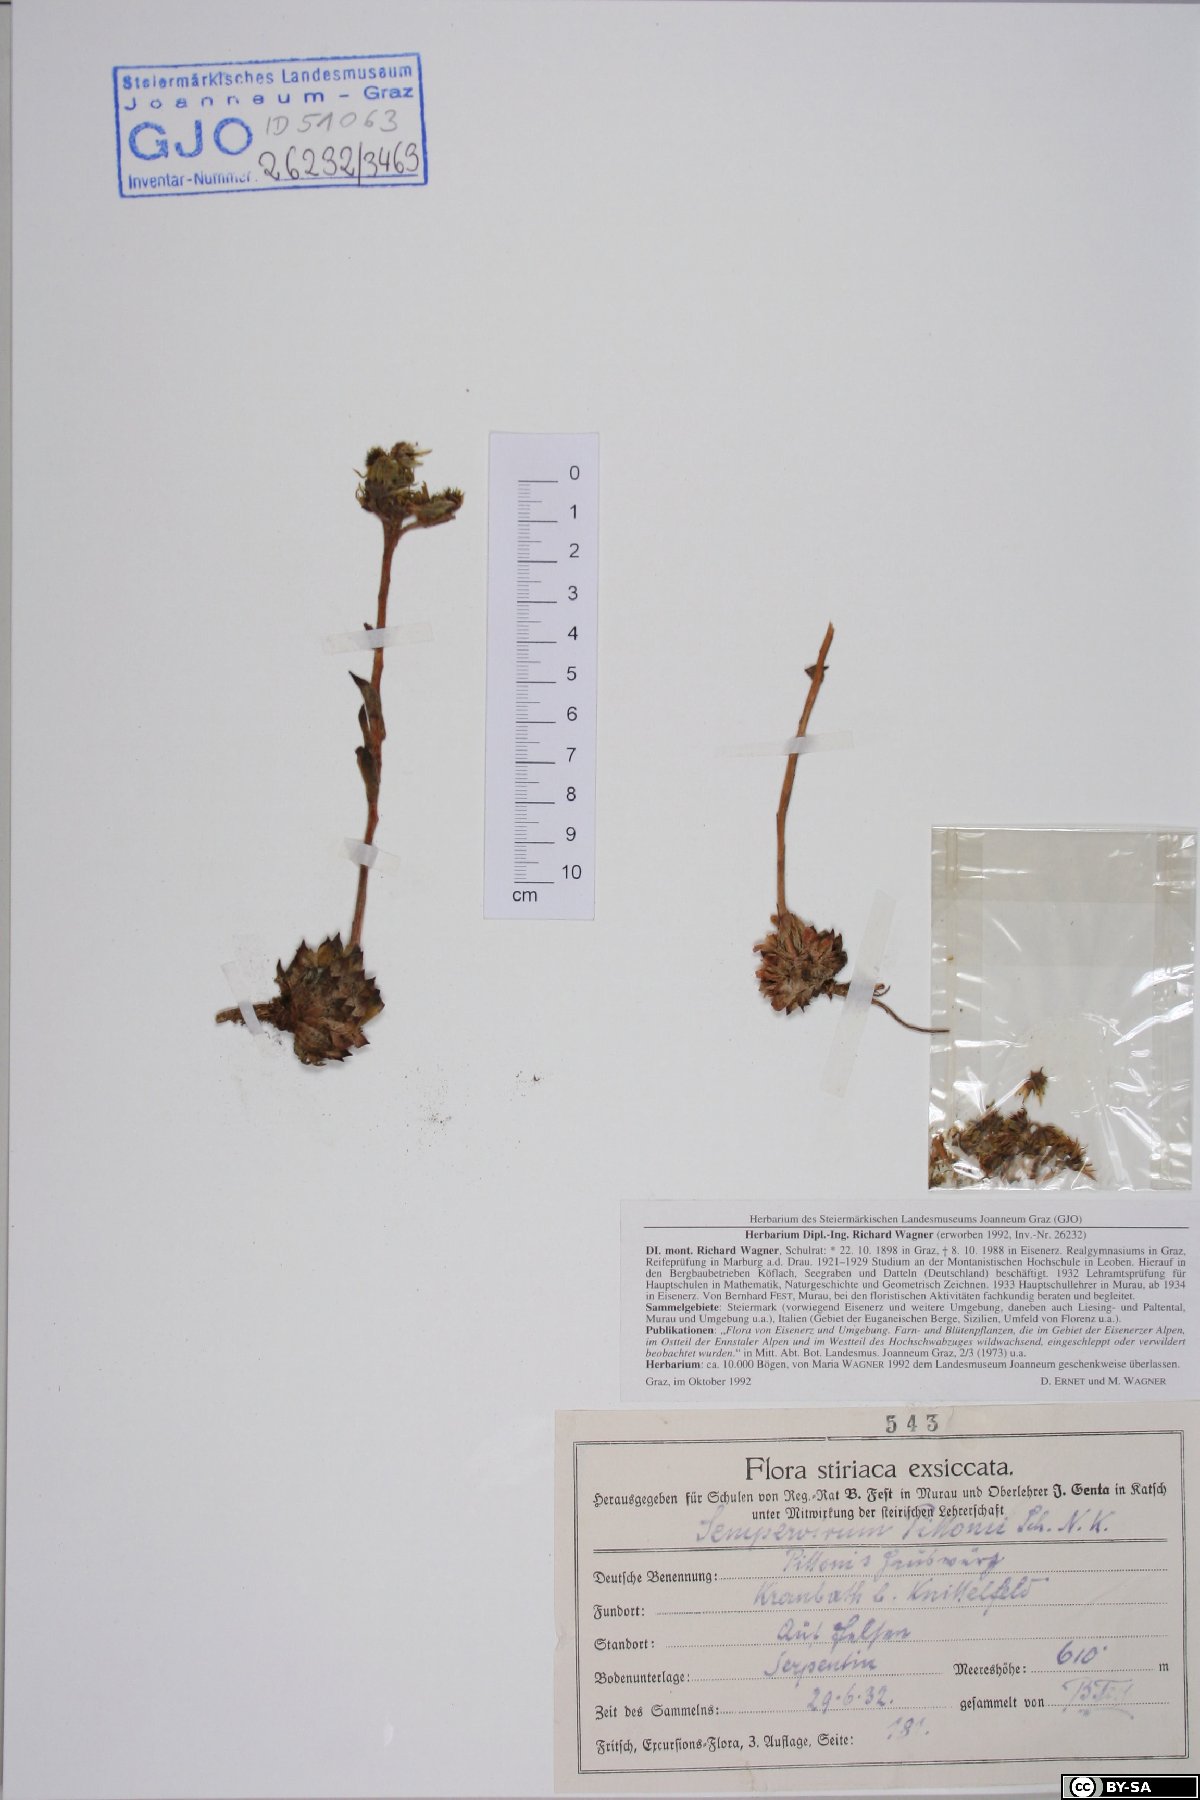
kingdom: Plantae
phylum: Tracheophyta
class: Magnoliopsida
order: Saxifragales
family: Crassulaceae
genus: Sempervivum
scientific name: Sempervivum pittonii
